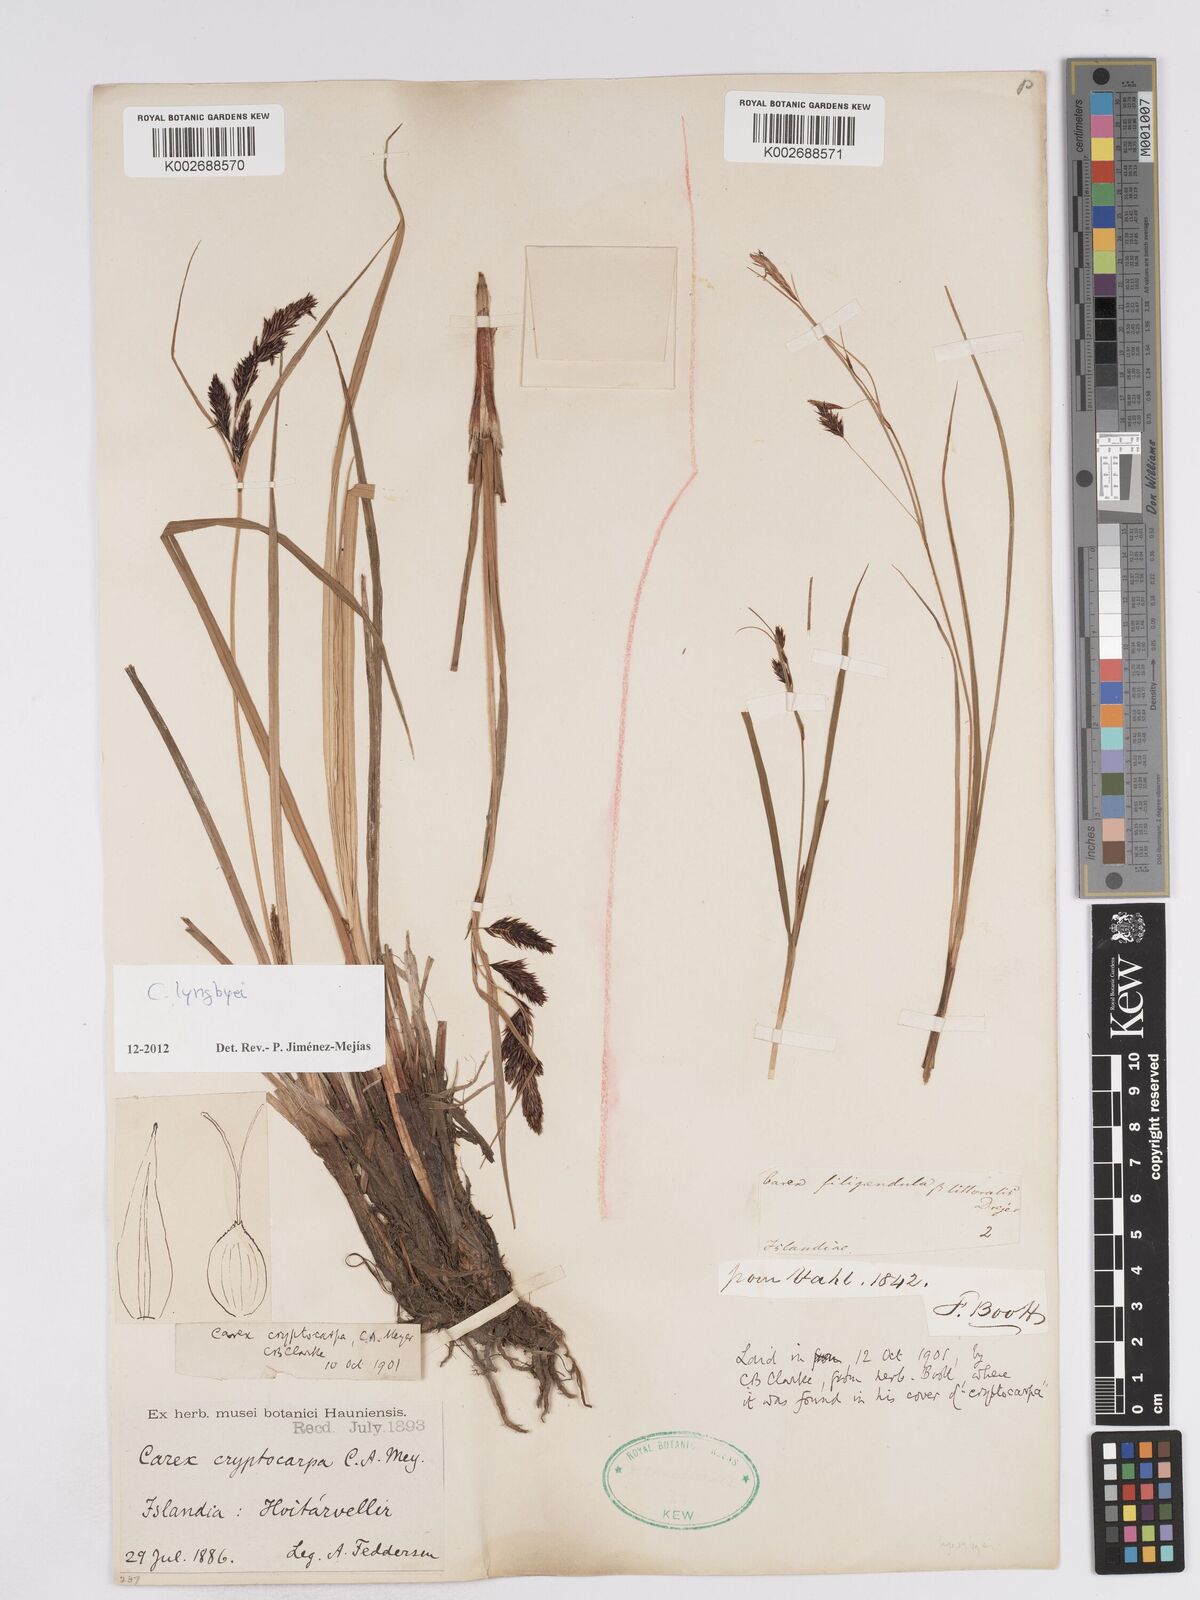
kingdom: Plantae
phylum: Tracheophyta
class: Liliopsida
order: Poales
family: Cyperaceae
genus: Carex
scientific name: Carex lyngbyei
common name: Lyngbye's sedge
